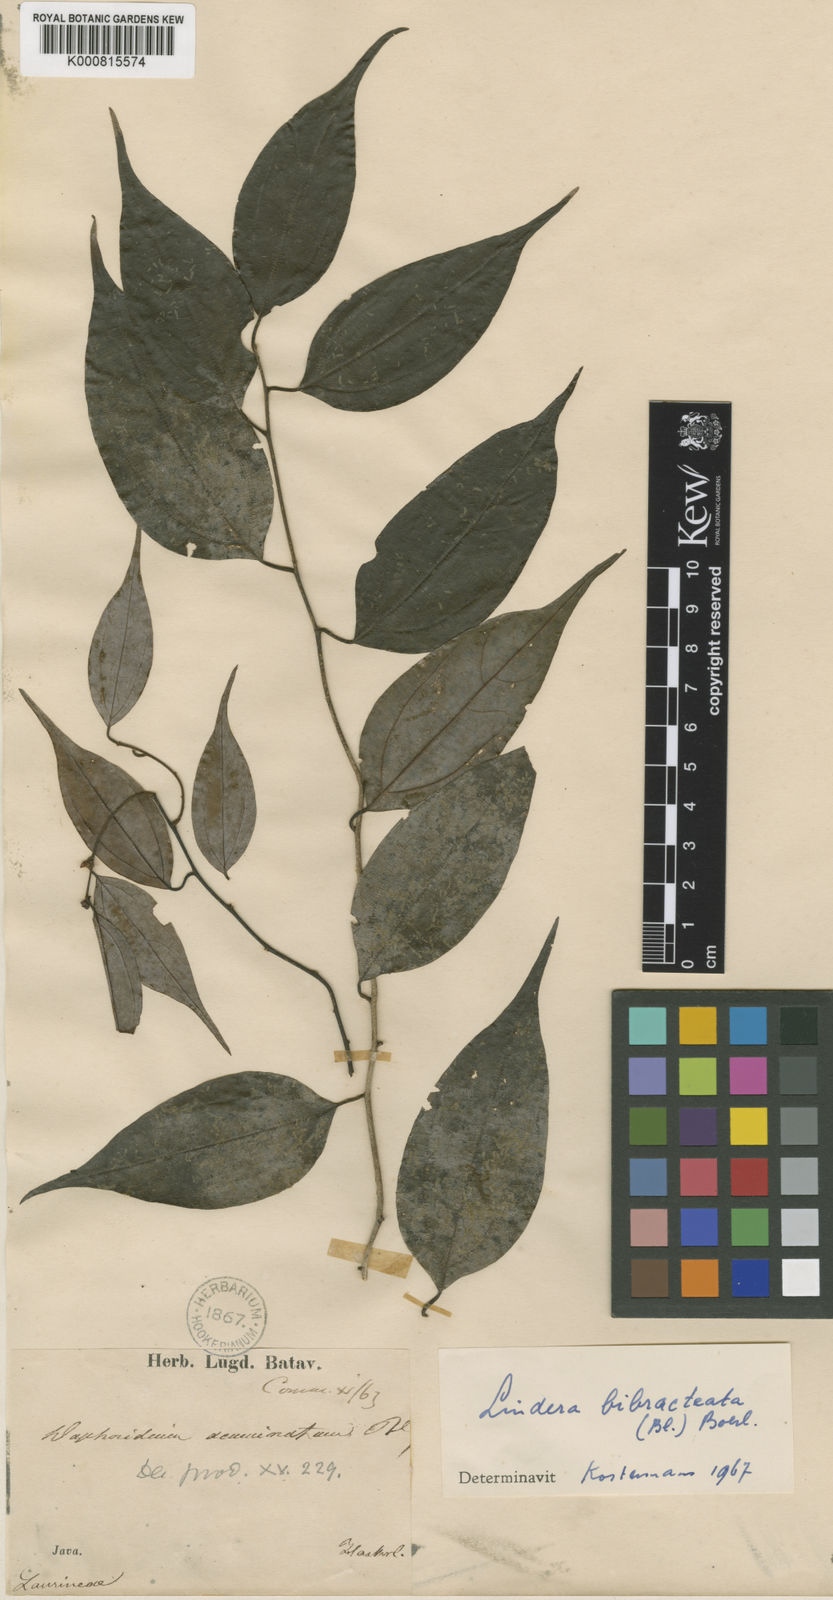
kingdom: Plantae
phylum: Tracheophyta
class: Magnoliopsida
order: Laurales
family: Lauraceae
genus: Lindera
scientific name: Lindera bibracteata
